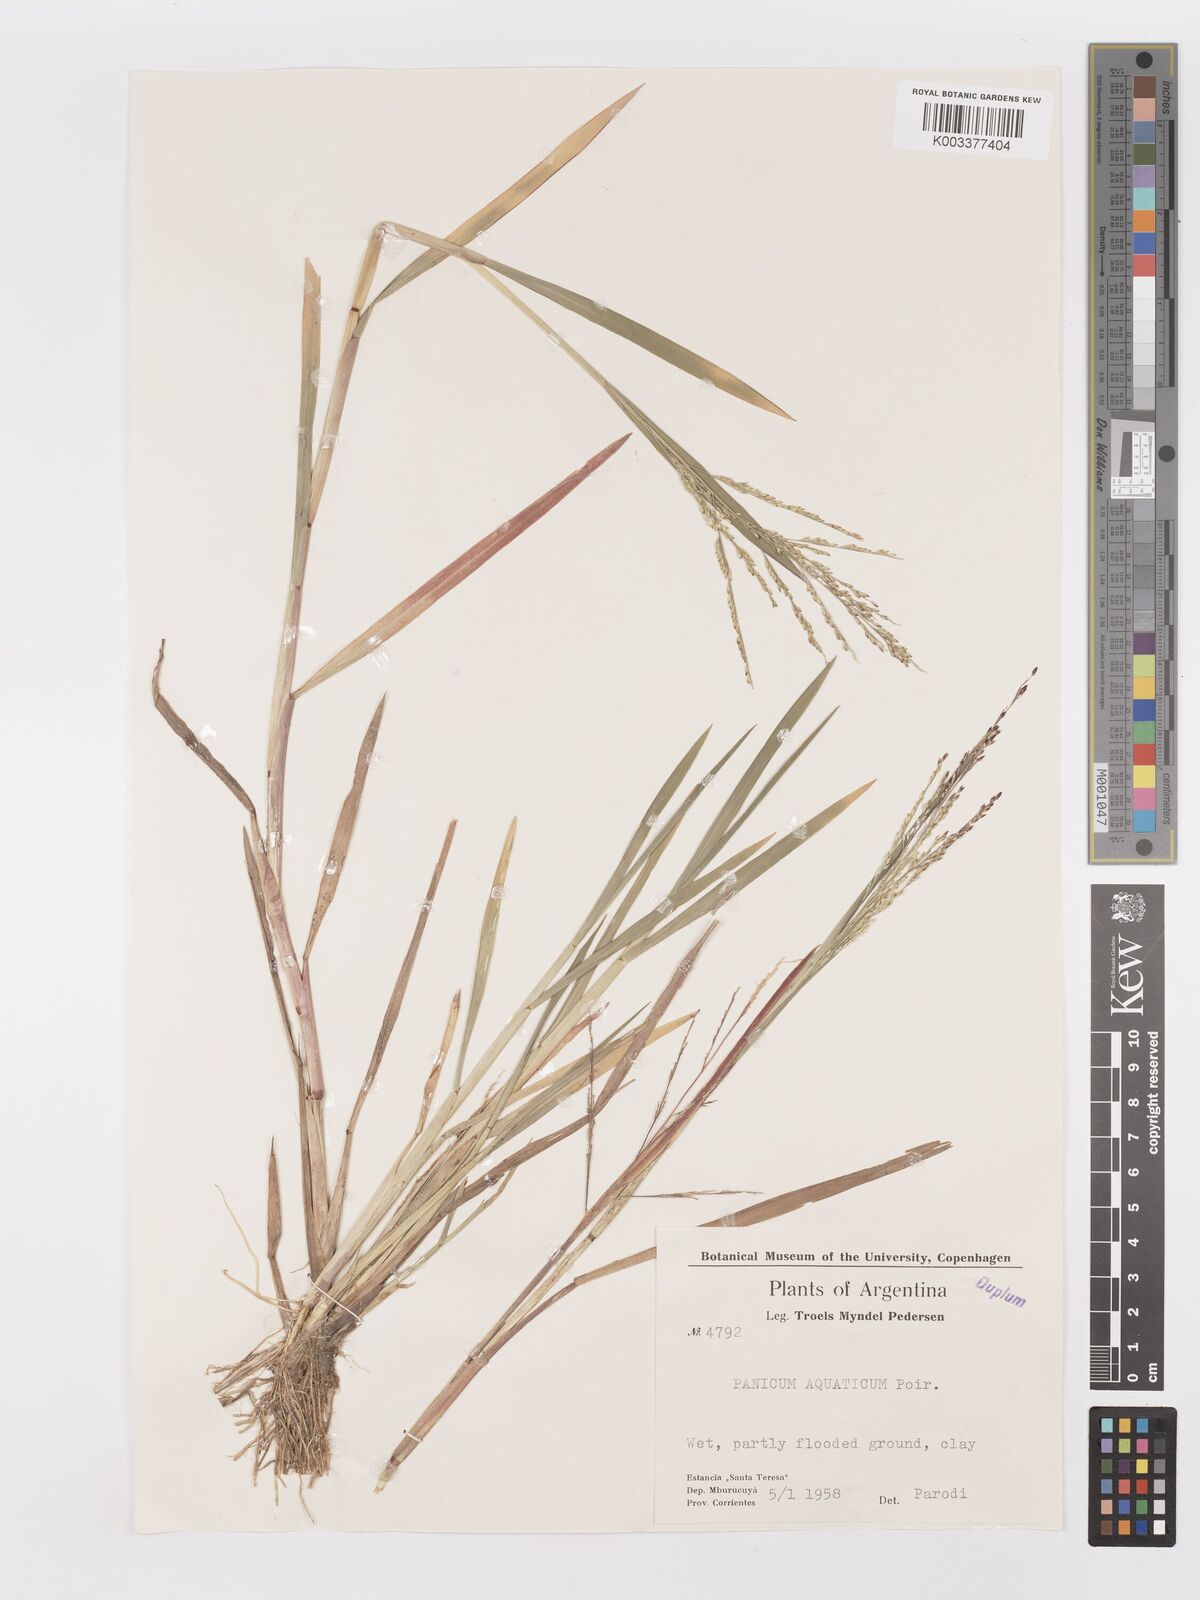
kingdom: Plantae
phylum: Tracheophyta
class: Liliopsida
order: Poales
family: Poaceae
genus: Panicum
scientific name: Panicum dichotomiflorum
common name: Autumn millet
